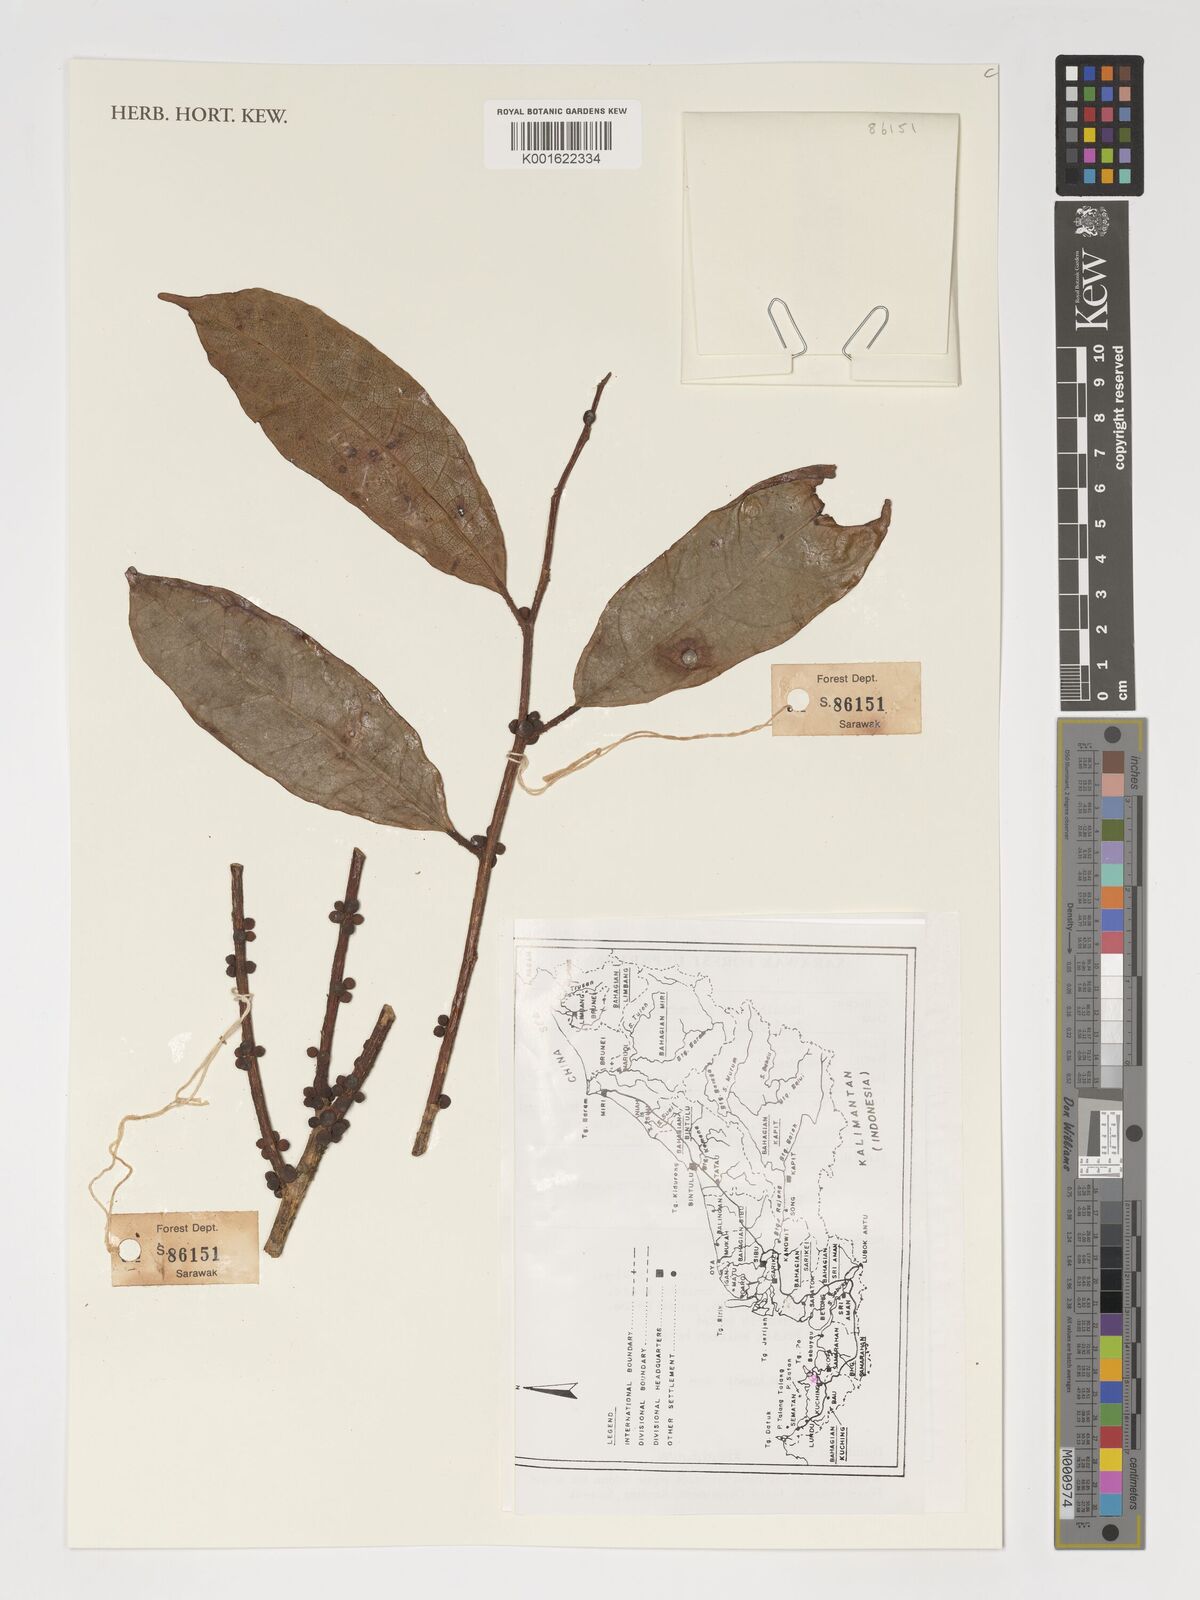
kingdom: Plantae
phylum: Tracheophyta
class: Magnoliopsida
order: Rosales
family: Moraceae
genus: Ficus
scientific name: Ficus
